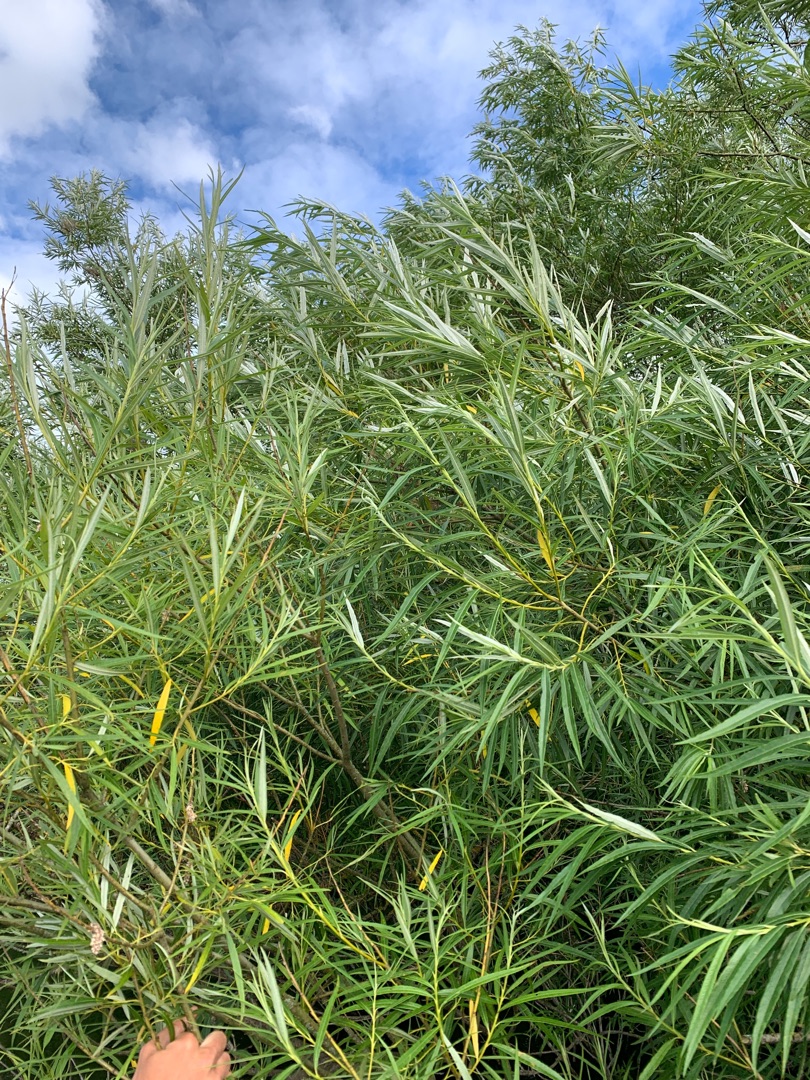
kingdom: Plantae
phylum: Tracheophyta
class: Magnoliopsida
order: Malpighiales
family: Salicaceae
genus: Salix
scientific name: Salix viminalis
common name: Bånd-pil
